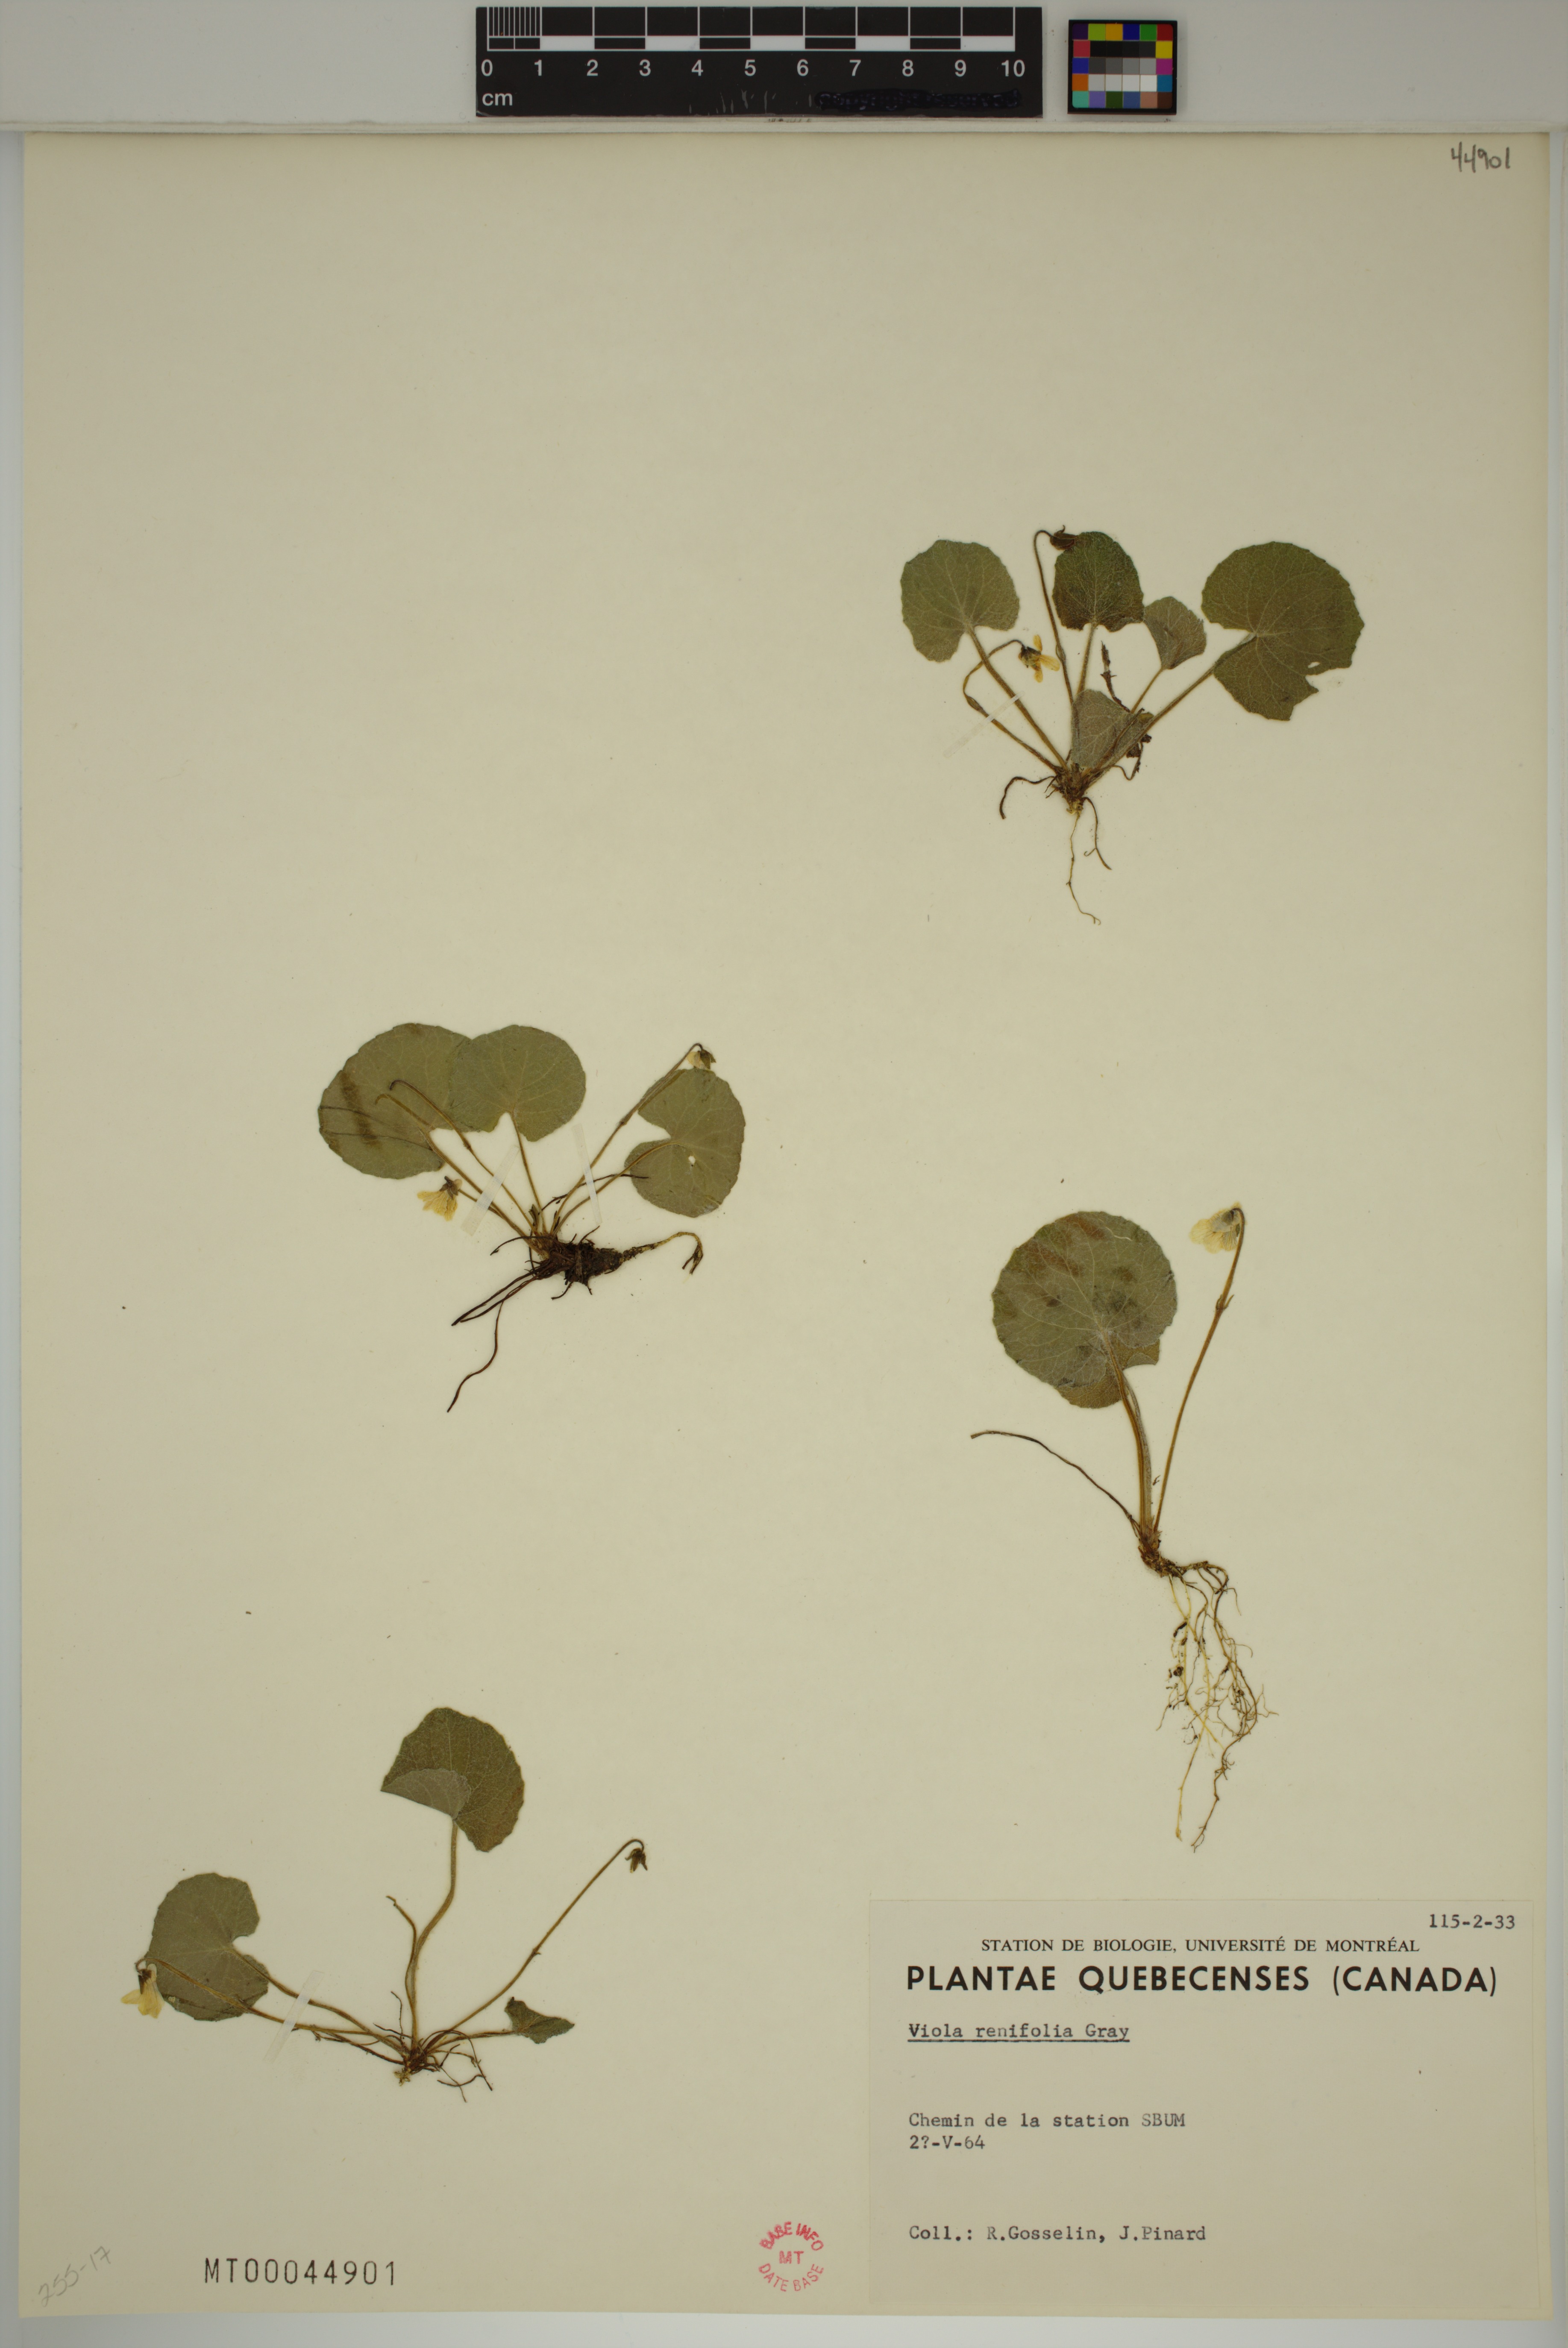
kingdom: Plantae
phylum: Tracheophyta
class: Magnoliopsida
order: Malpighiales
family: Violaceae
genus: Viola
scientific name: Viola renifolia
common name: Kidney-leaf violet
